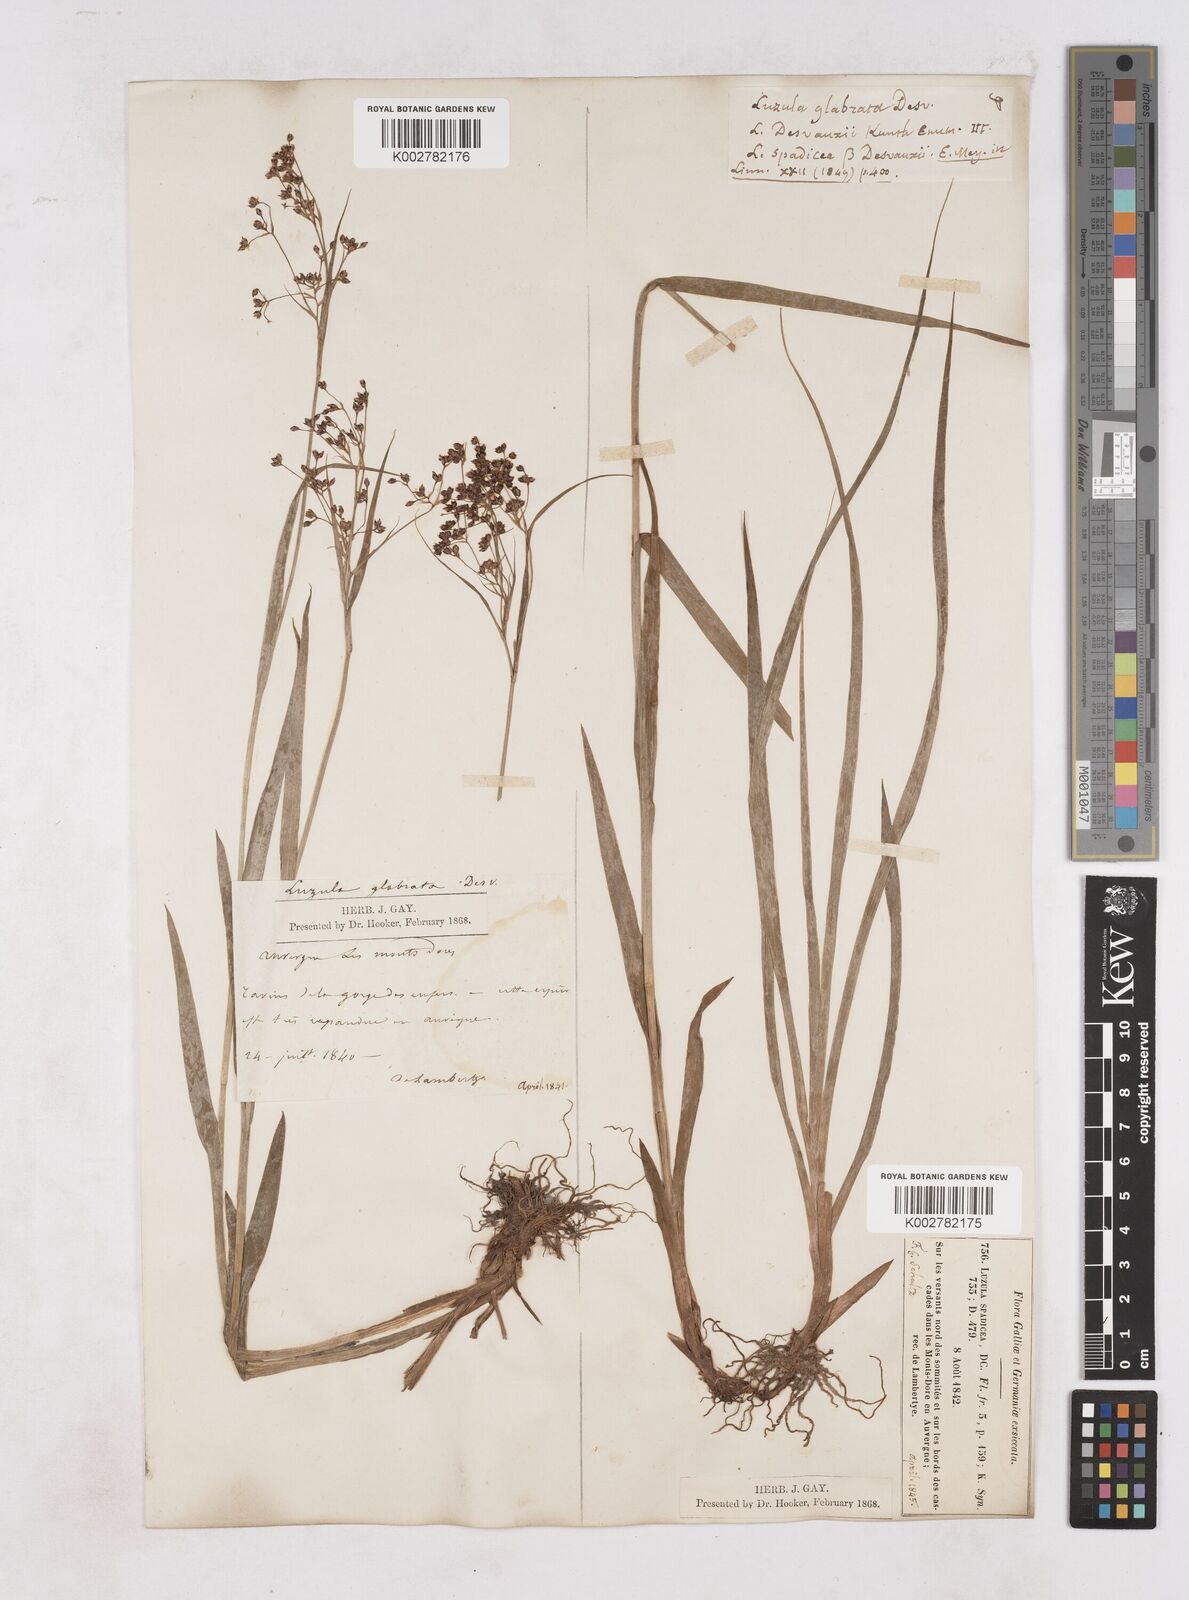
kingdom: Plantae
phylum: Tracheophyta
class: Liliopsida
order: Poales
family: Juncaceae
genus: Luzula
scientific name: Luzula glabrata
